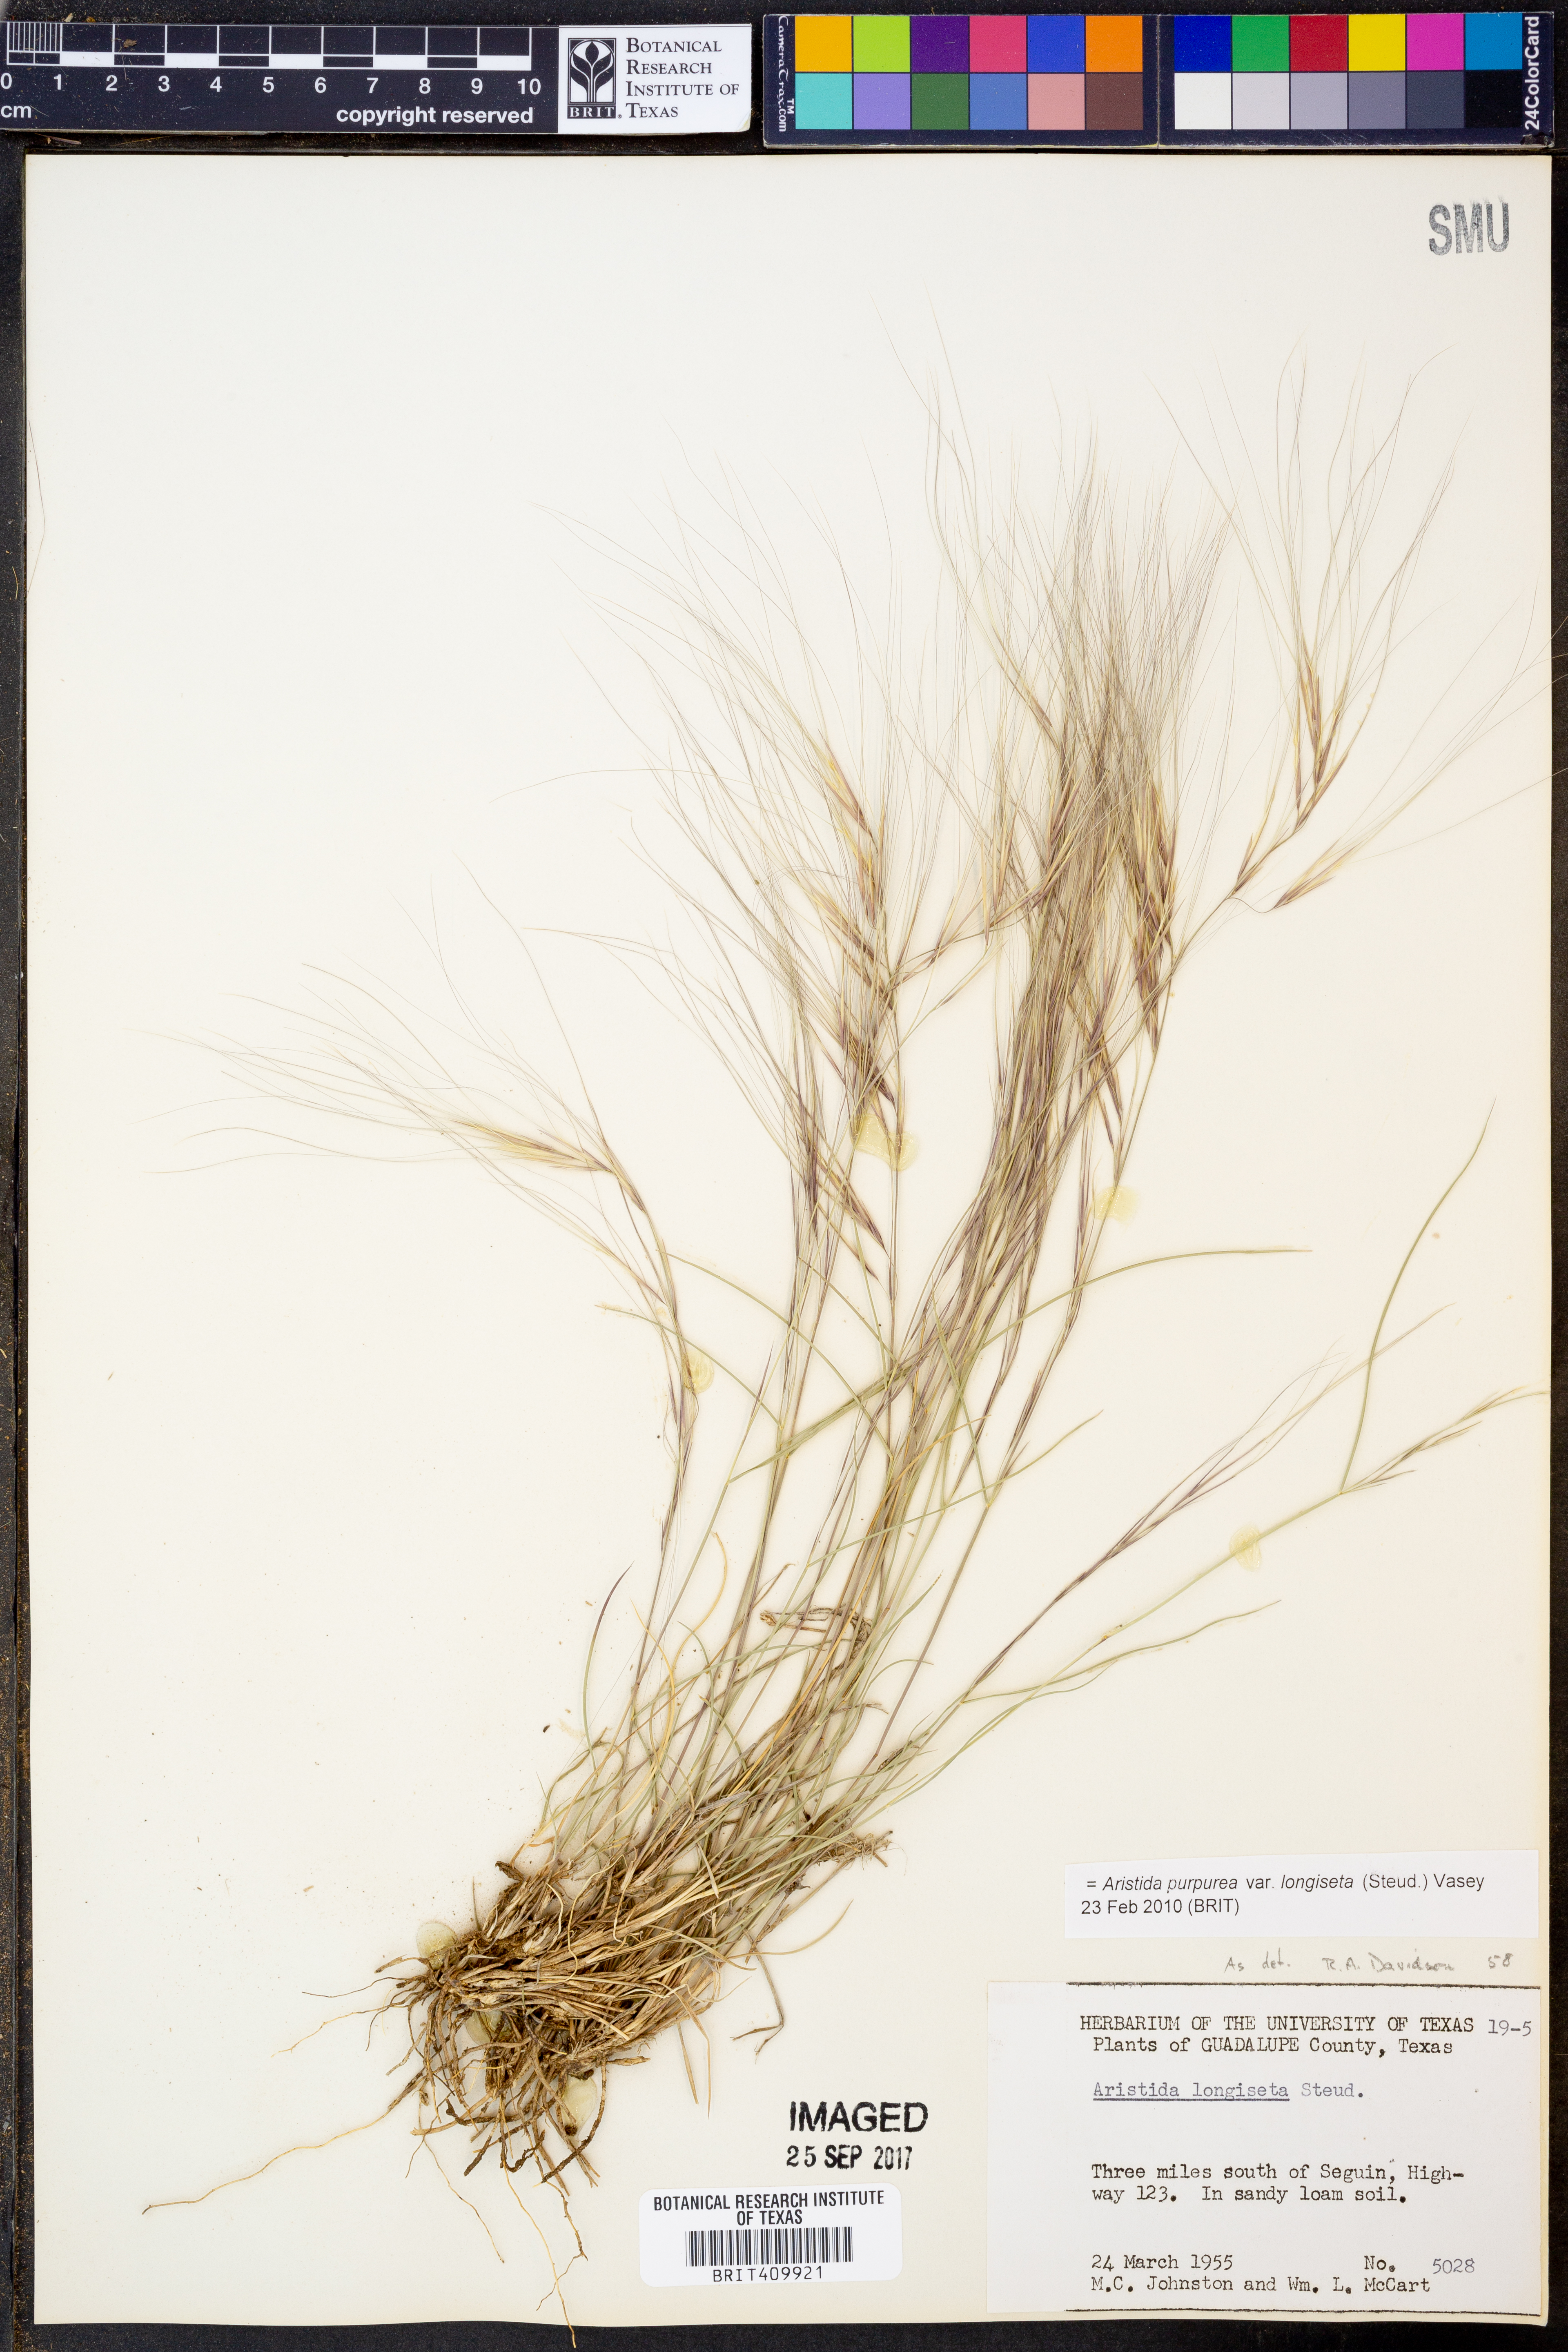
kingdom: Plantae
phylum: Tracheophyta
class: Liliopsida
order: Poales
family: Poaceae
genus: Aristida
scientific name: Aristida longiseta
